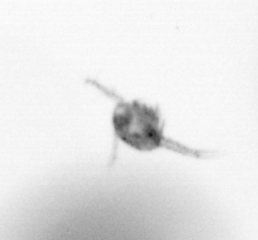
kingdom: Animalia
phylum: Arthropoda
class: Copepoda
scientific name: Copepoda
